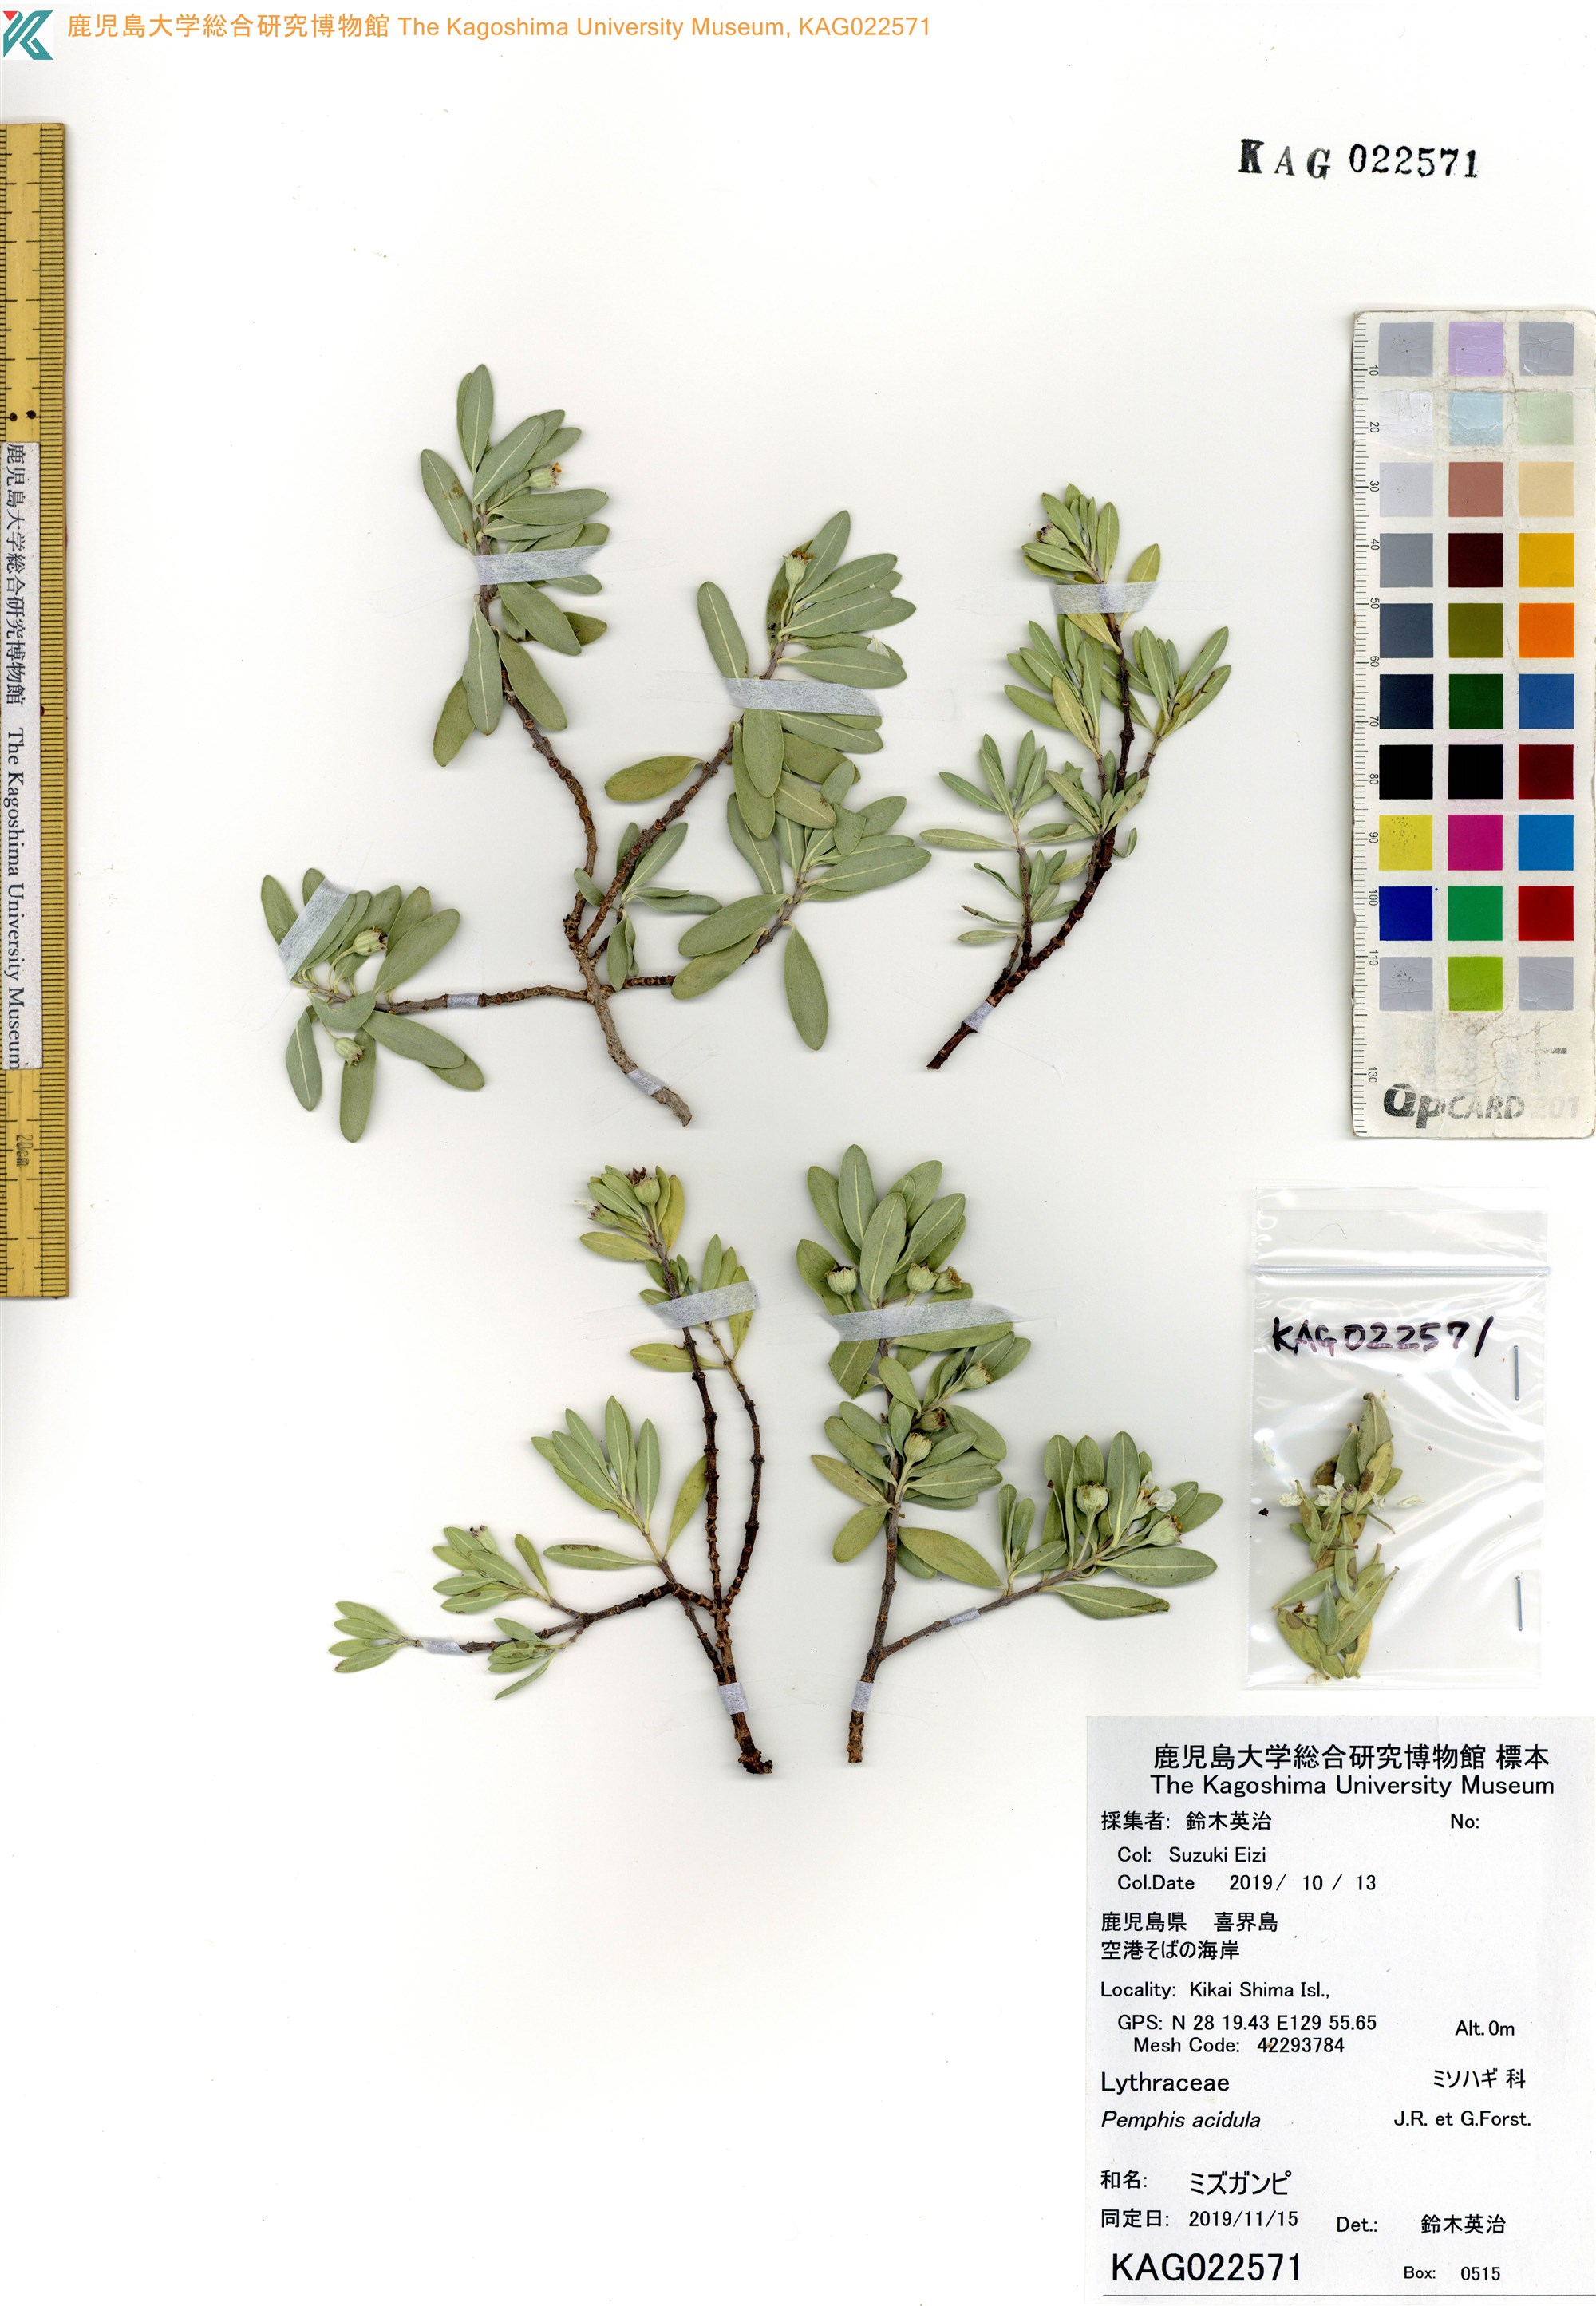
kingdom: Plantae
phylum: Tracheophyta
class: Magnoliopsida
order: Myrtales
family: Lythraceae
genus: Pemphis
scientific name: Pemphis acidula
